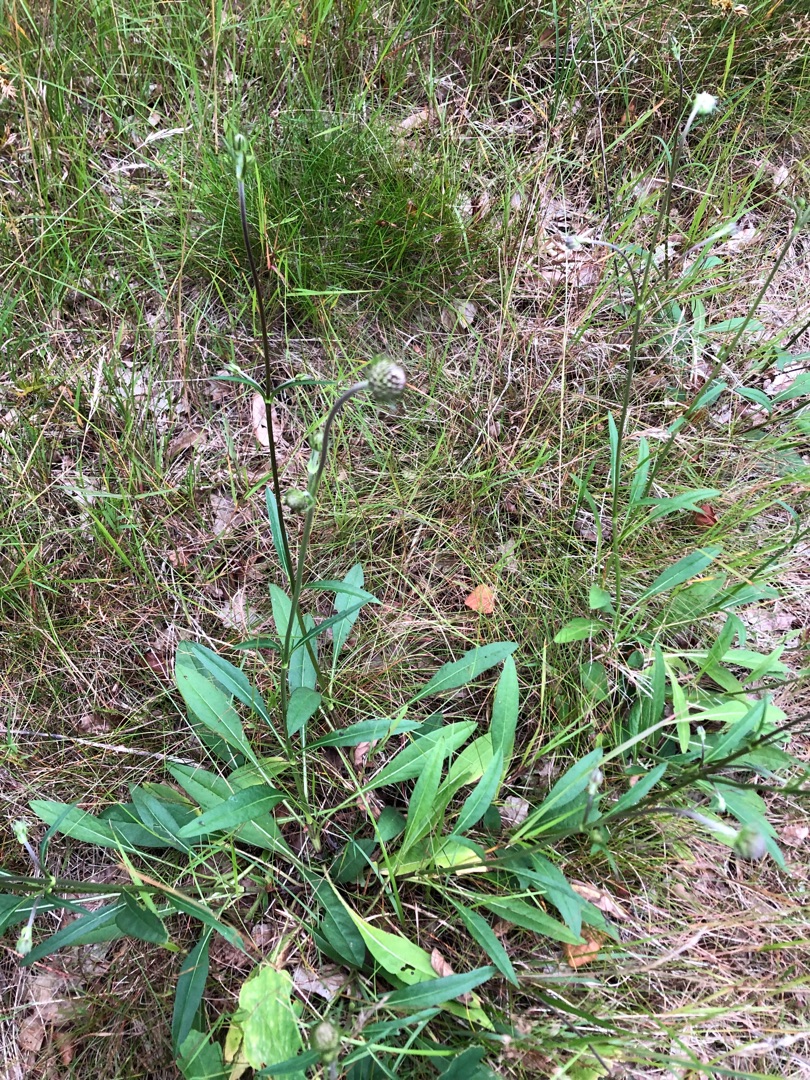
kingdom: Plantae
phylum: Tracheophyta
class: Magnoliopsida
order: Dipsacales
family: Caprifoliaceae
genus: Succisa
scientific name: Succisa pratensis
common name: Djævelsbid
